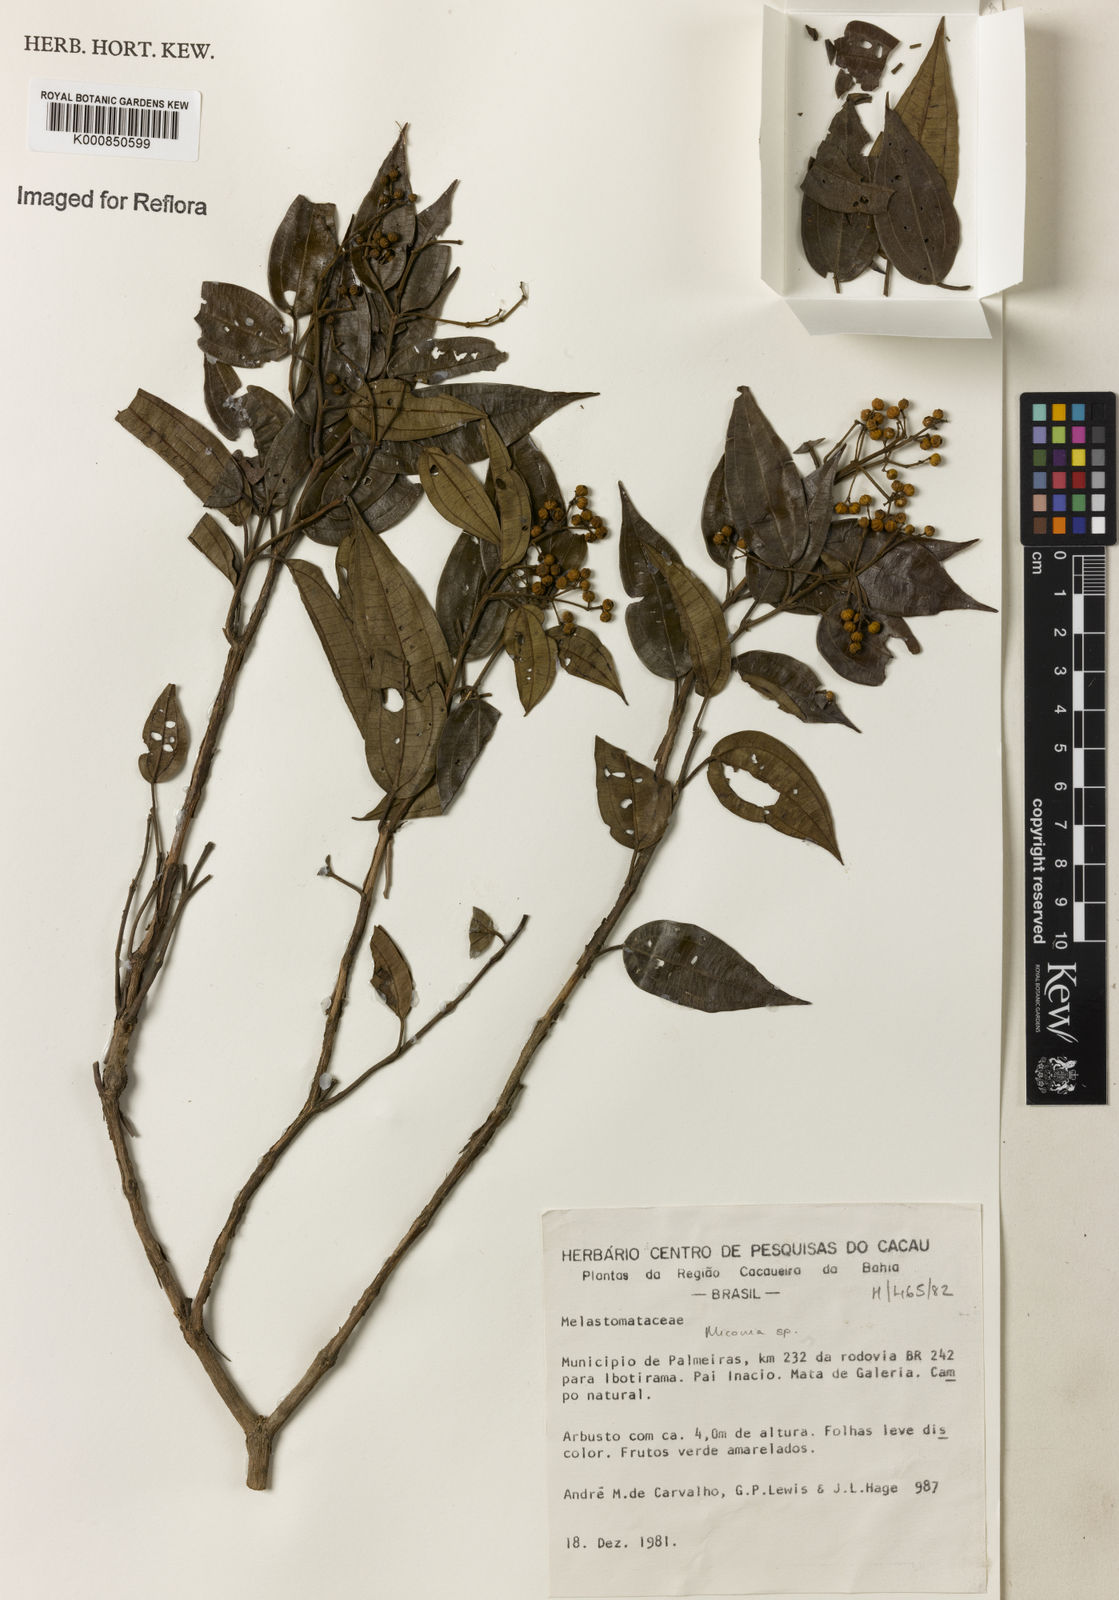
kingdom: Plantae
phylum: Tracheophyta
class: Magnoliopsida
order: Myrtales
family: Melastomataceae
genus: Miconia
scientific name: Miconia
